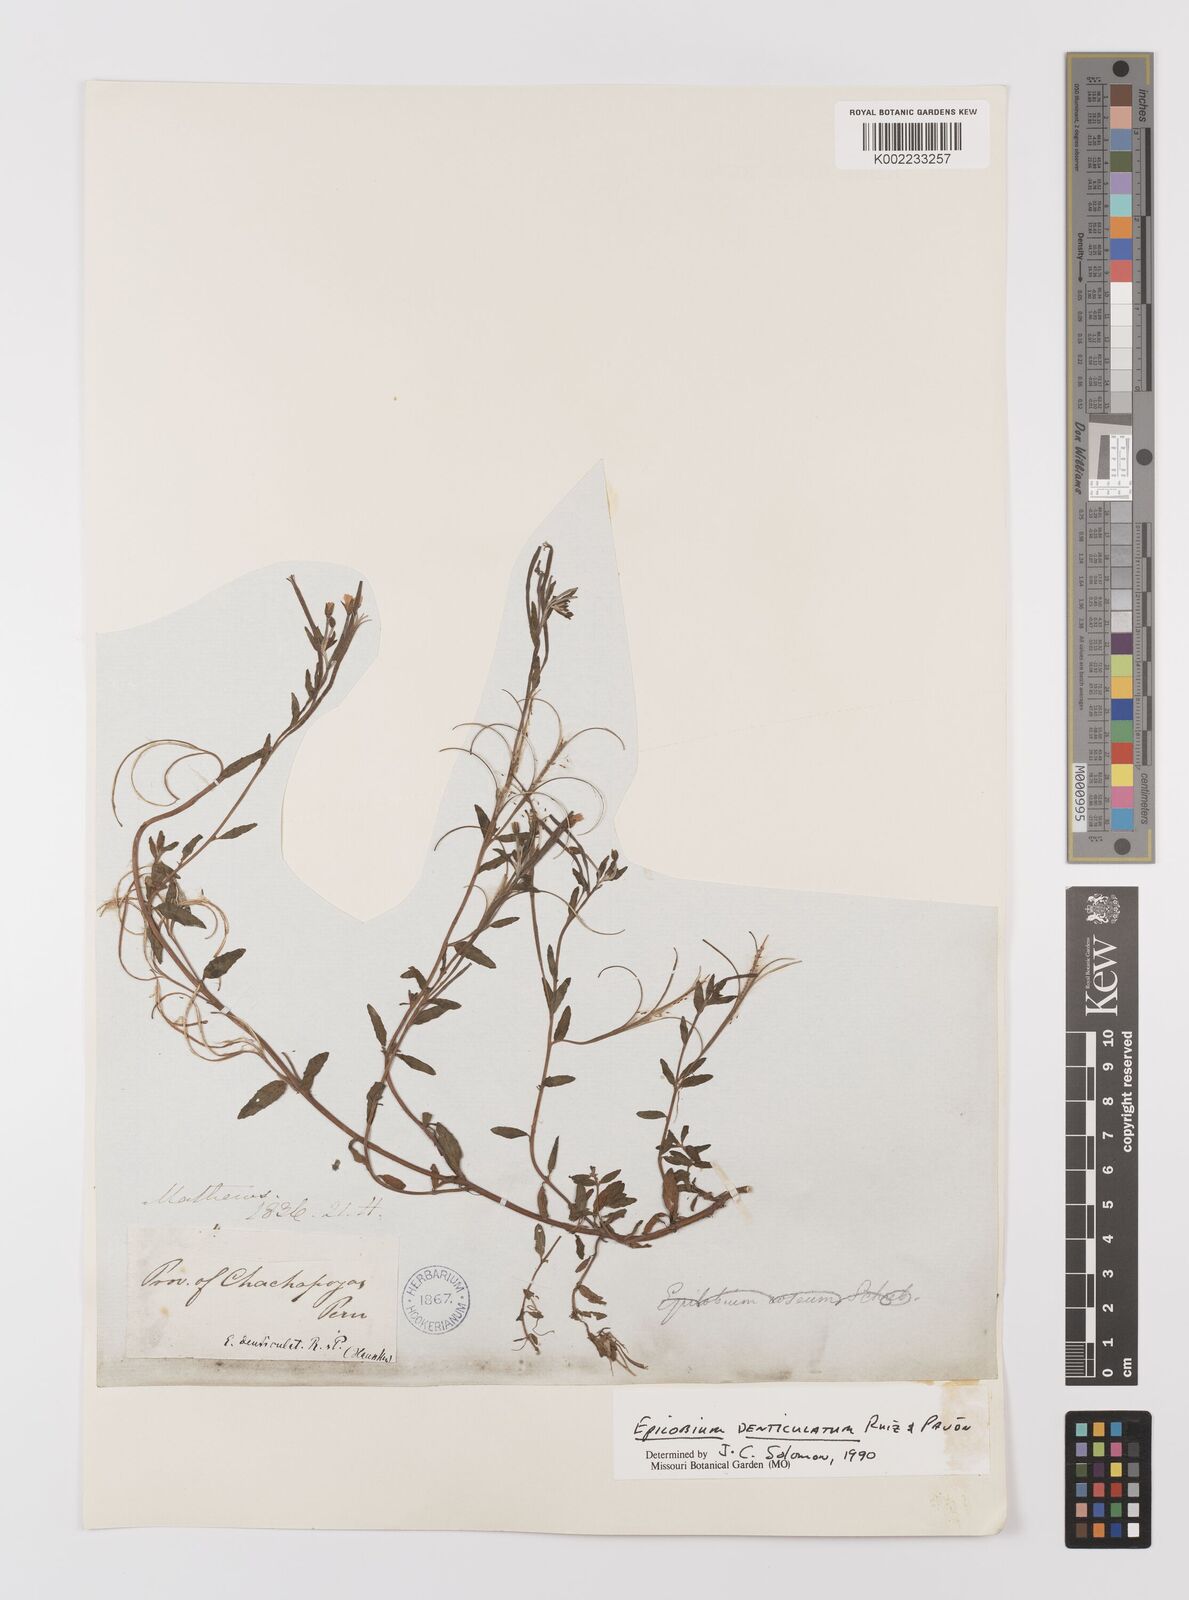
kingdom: Plantae
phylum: Tracheophyta
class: Magnoliopsida
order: Myrtales
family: Onagraceae
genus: Epilobium
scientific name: Epilobium denticulatum
